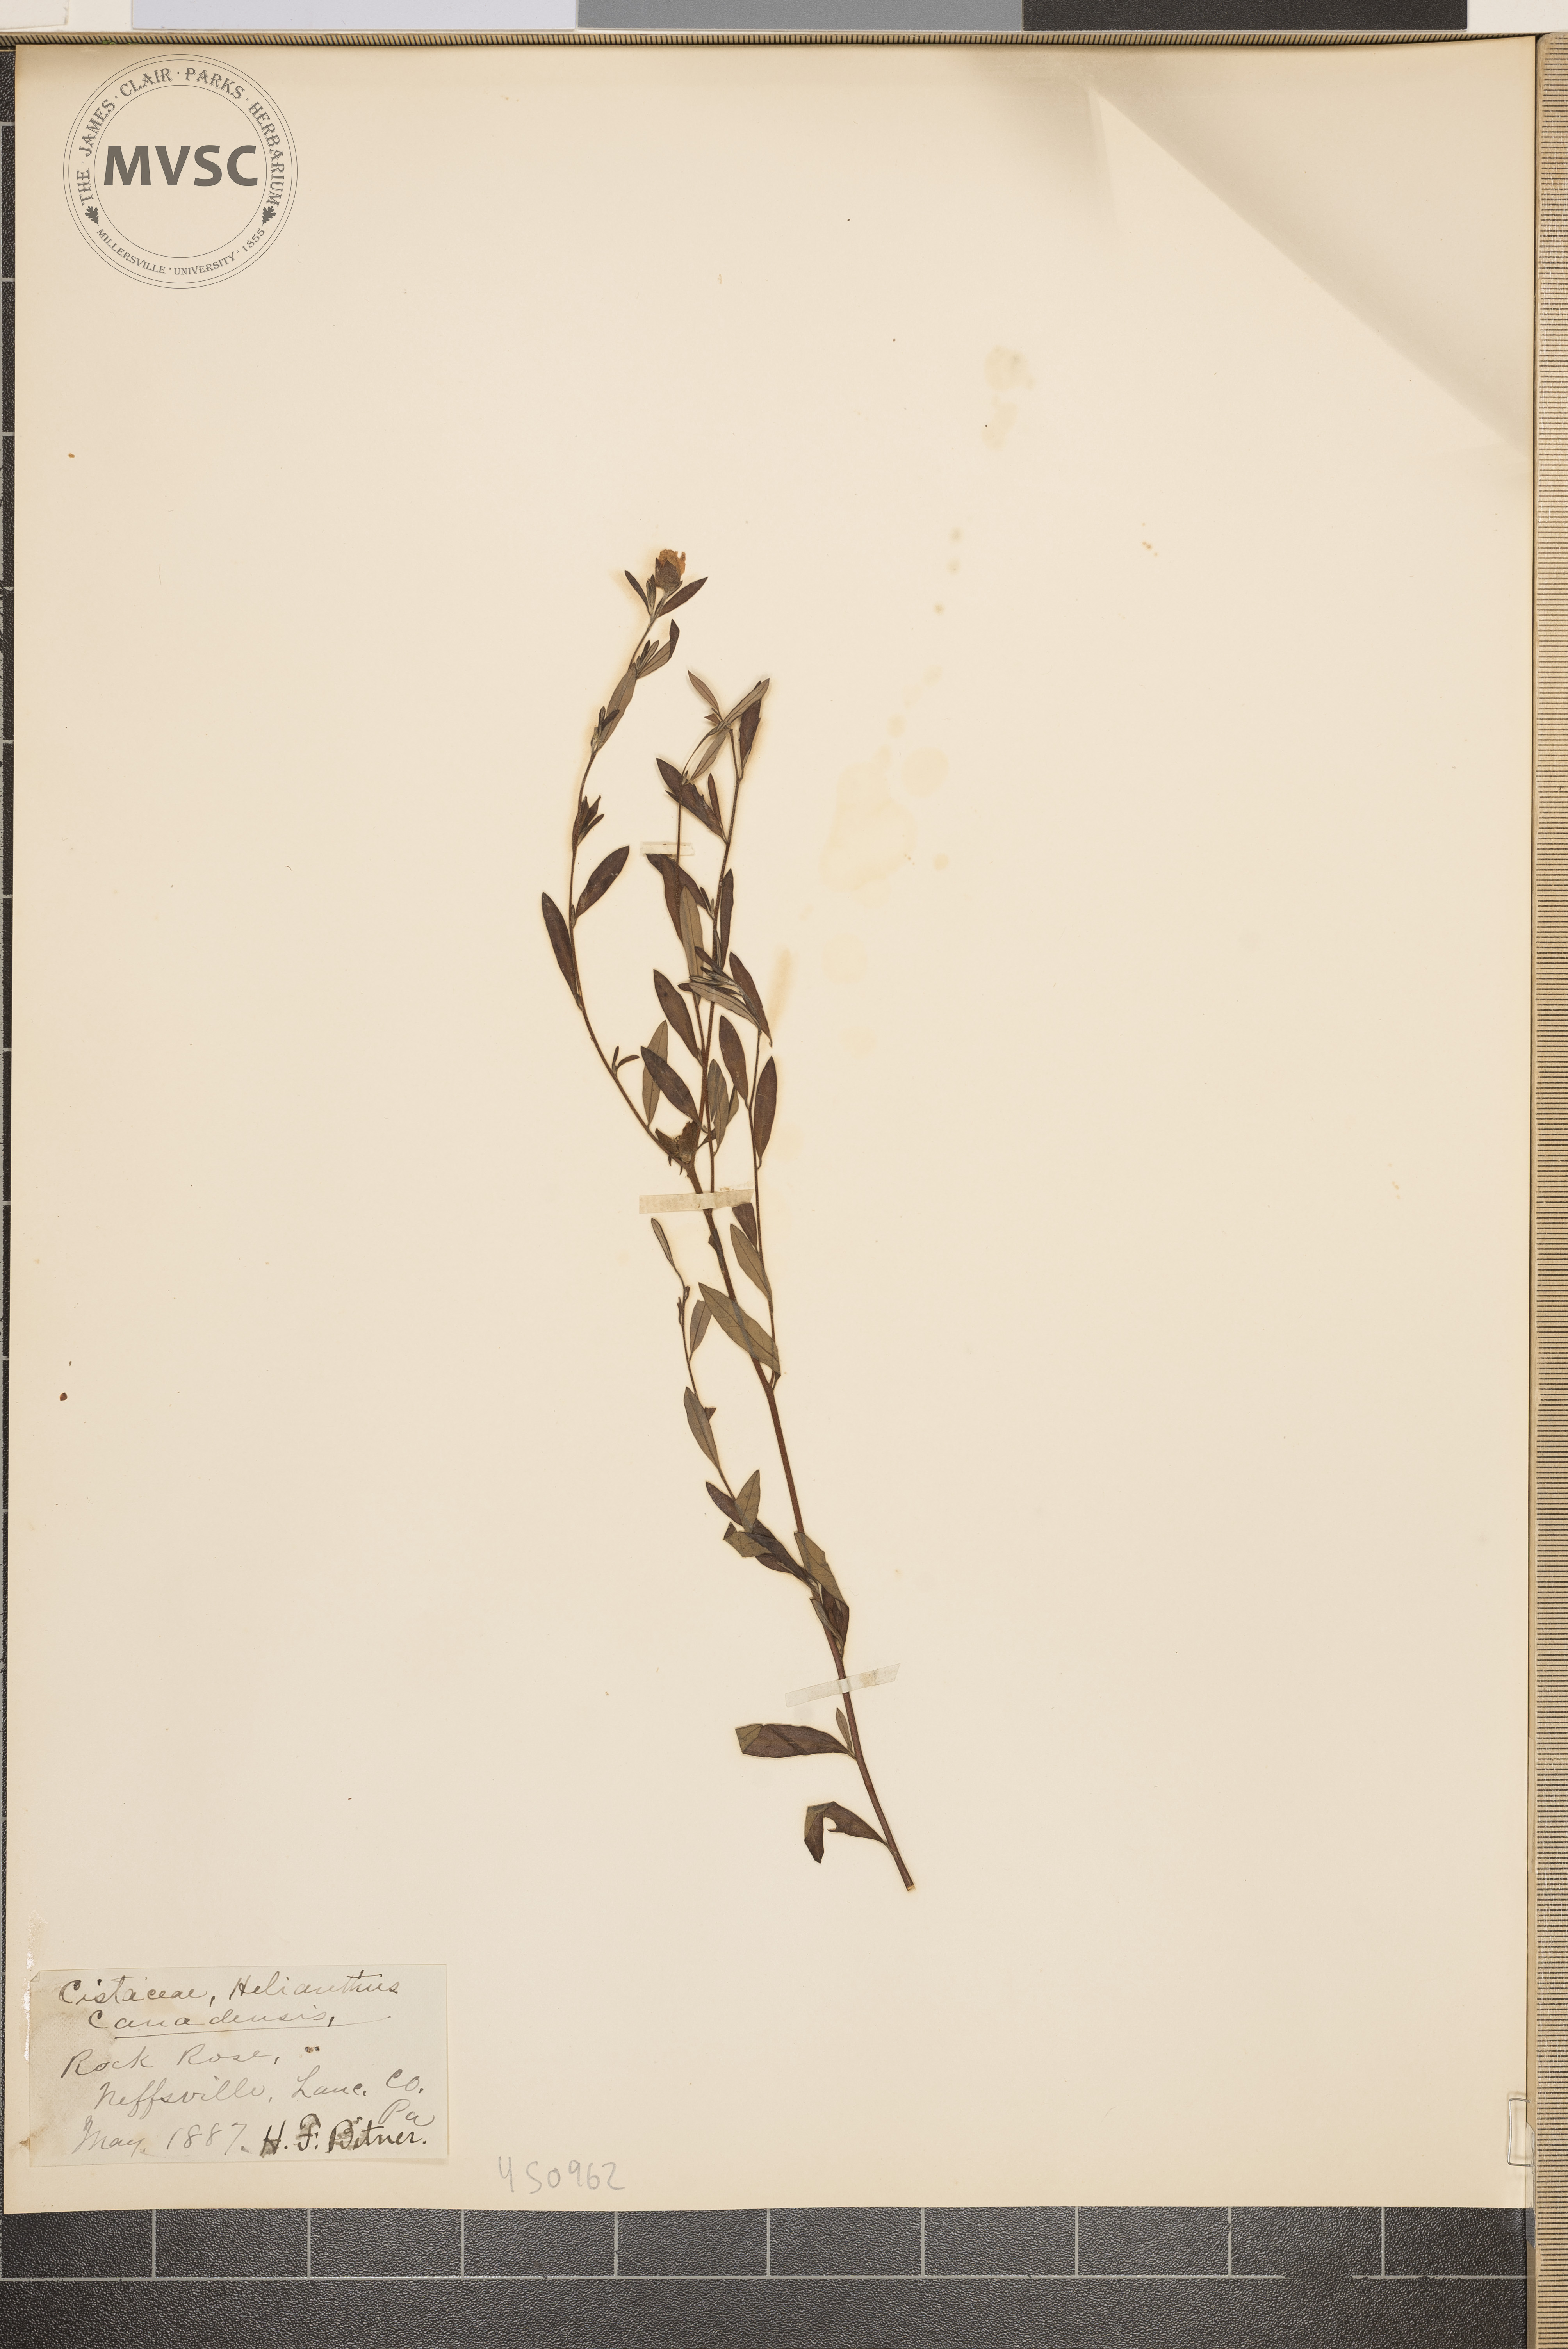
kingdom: Plantae
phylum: Tracheophyta
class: Magnoliopsida
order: Malvales
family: Cistaceae
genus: Crocanthemum
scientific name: Crocanthemum canadense
